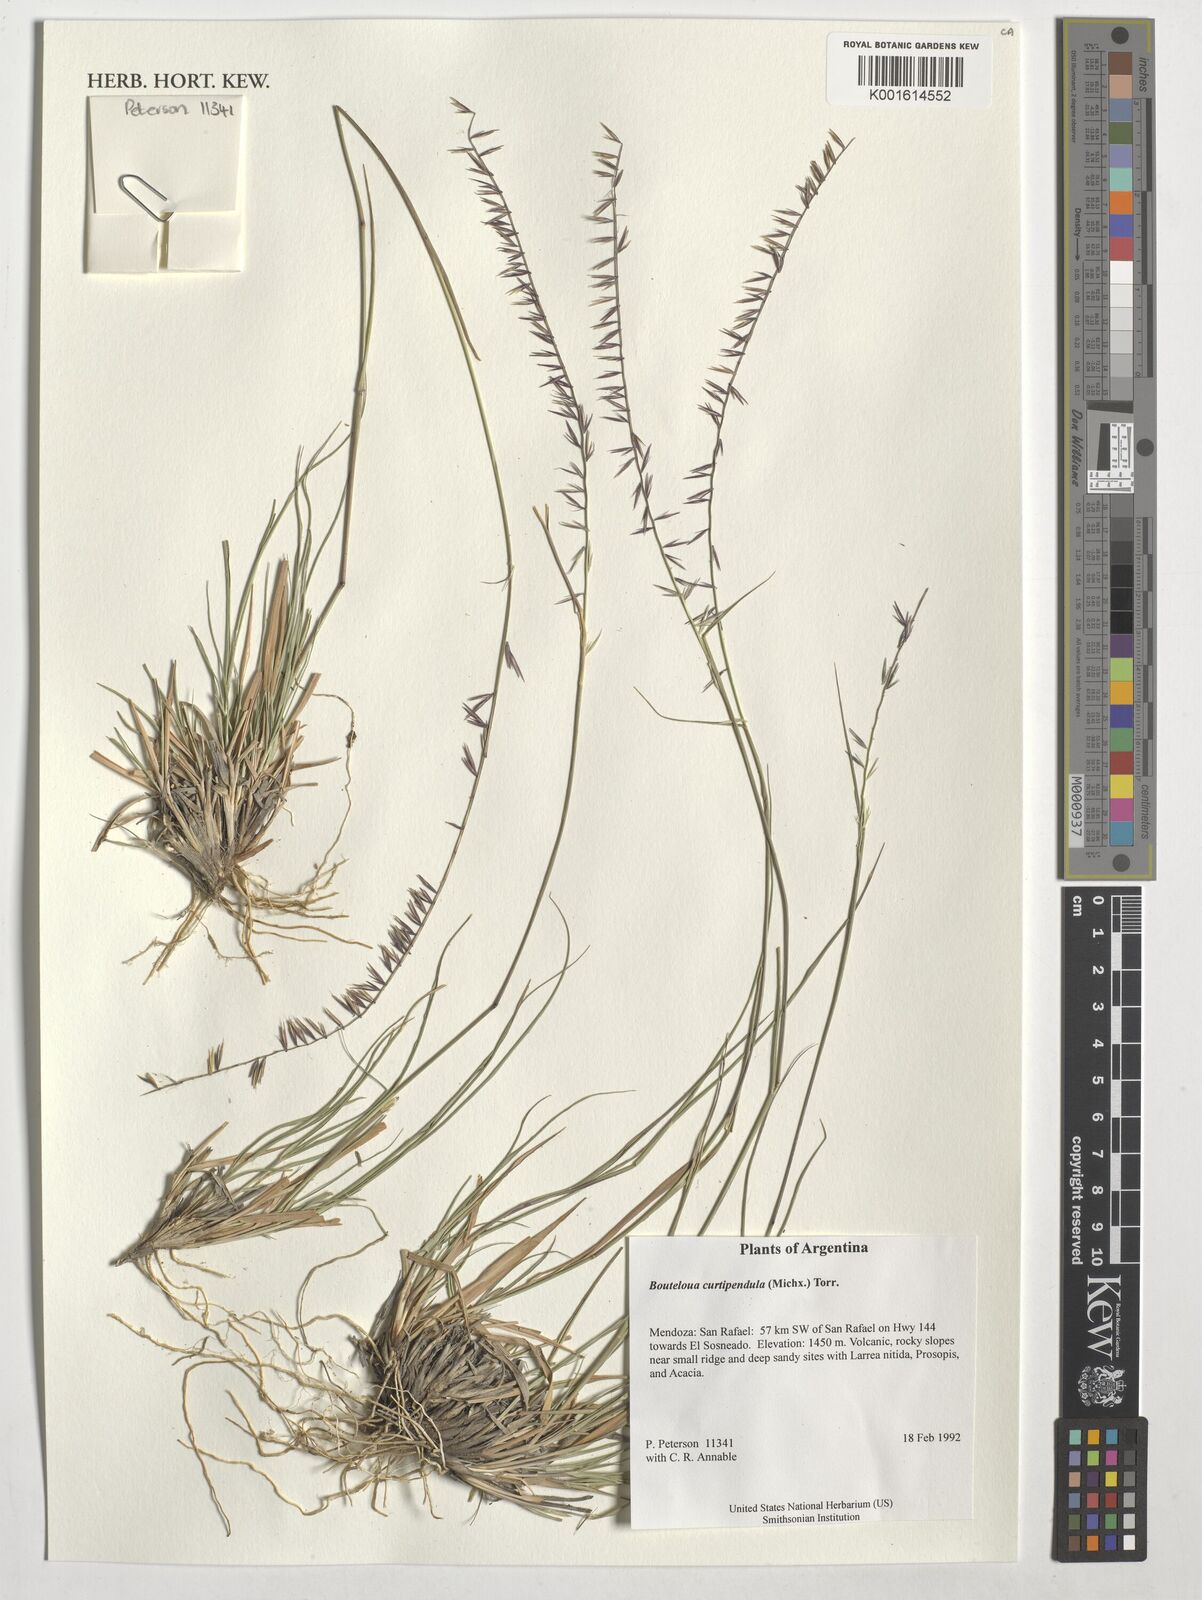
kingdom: Plantae
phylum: Tracheophyta
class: Liliopsida
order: Poales
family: Poaceae
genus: Bouteloua
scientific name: Bouteloua curtipendula
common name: Side-oats grama
